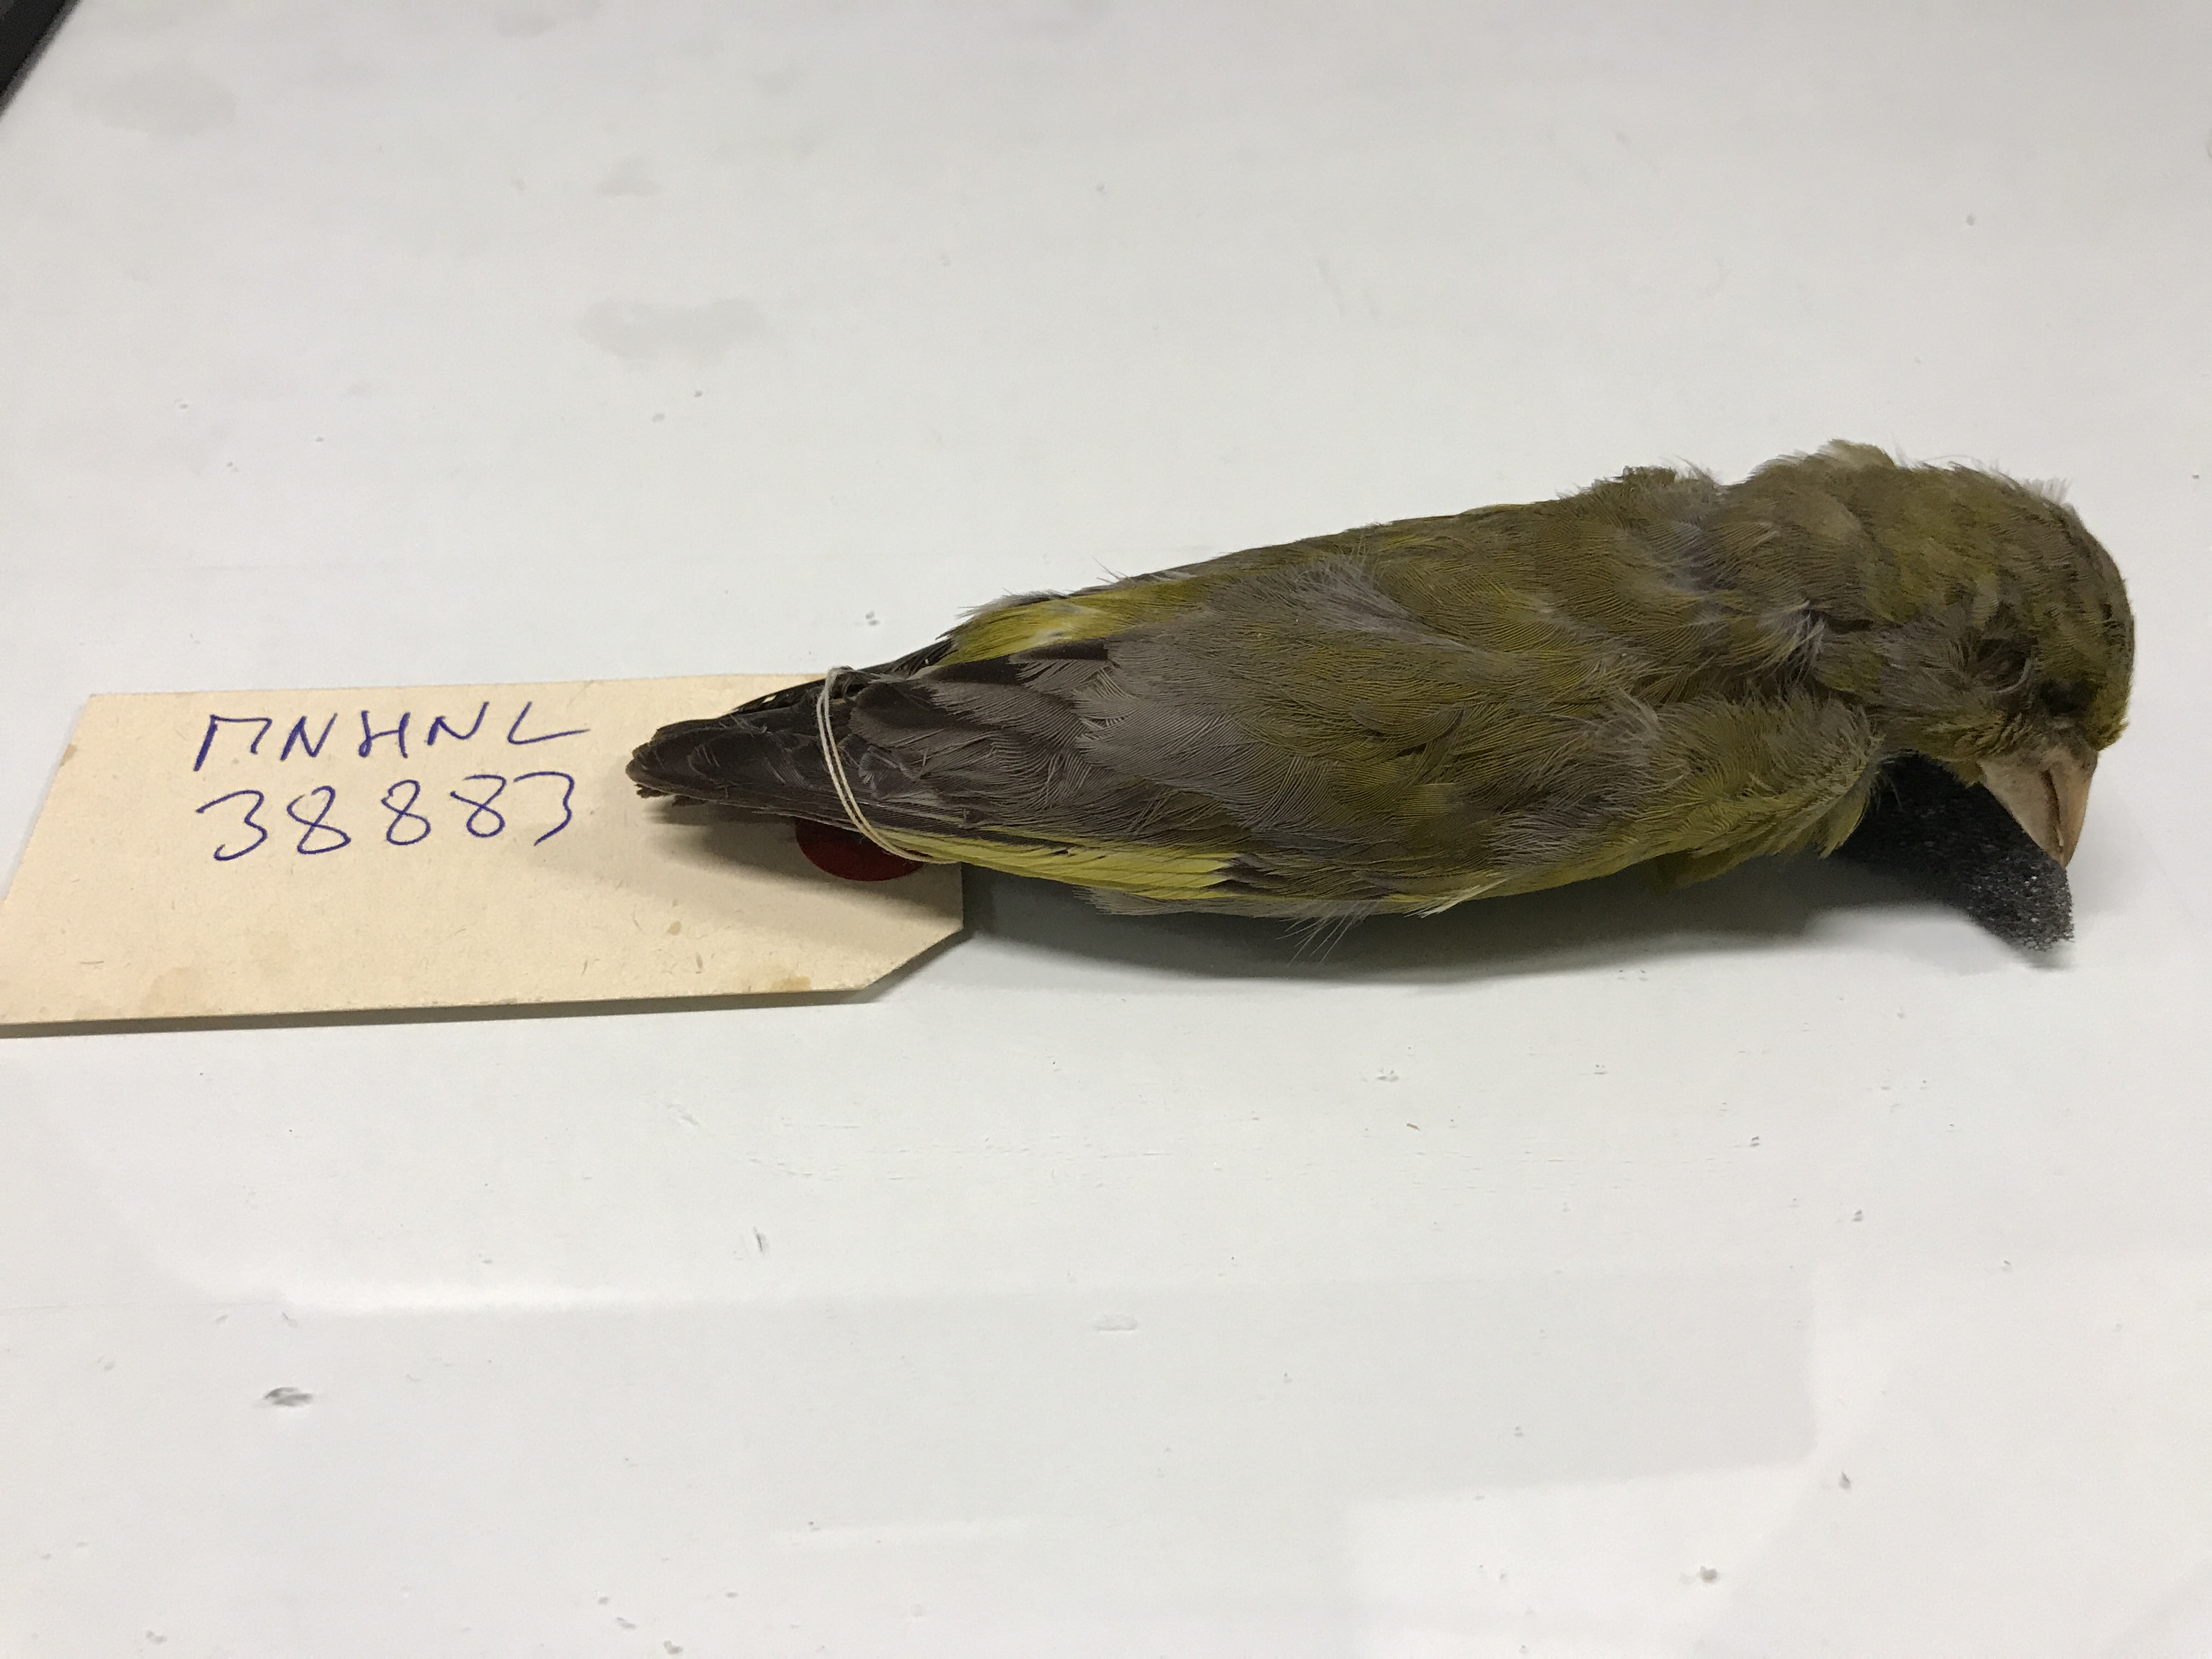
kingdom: Plantae
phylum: Tracheophyta
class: Liliopsida
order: Poales
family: Poaceae
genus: Chloris
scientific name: Chloris chloris
